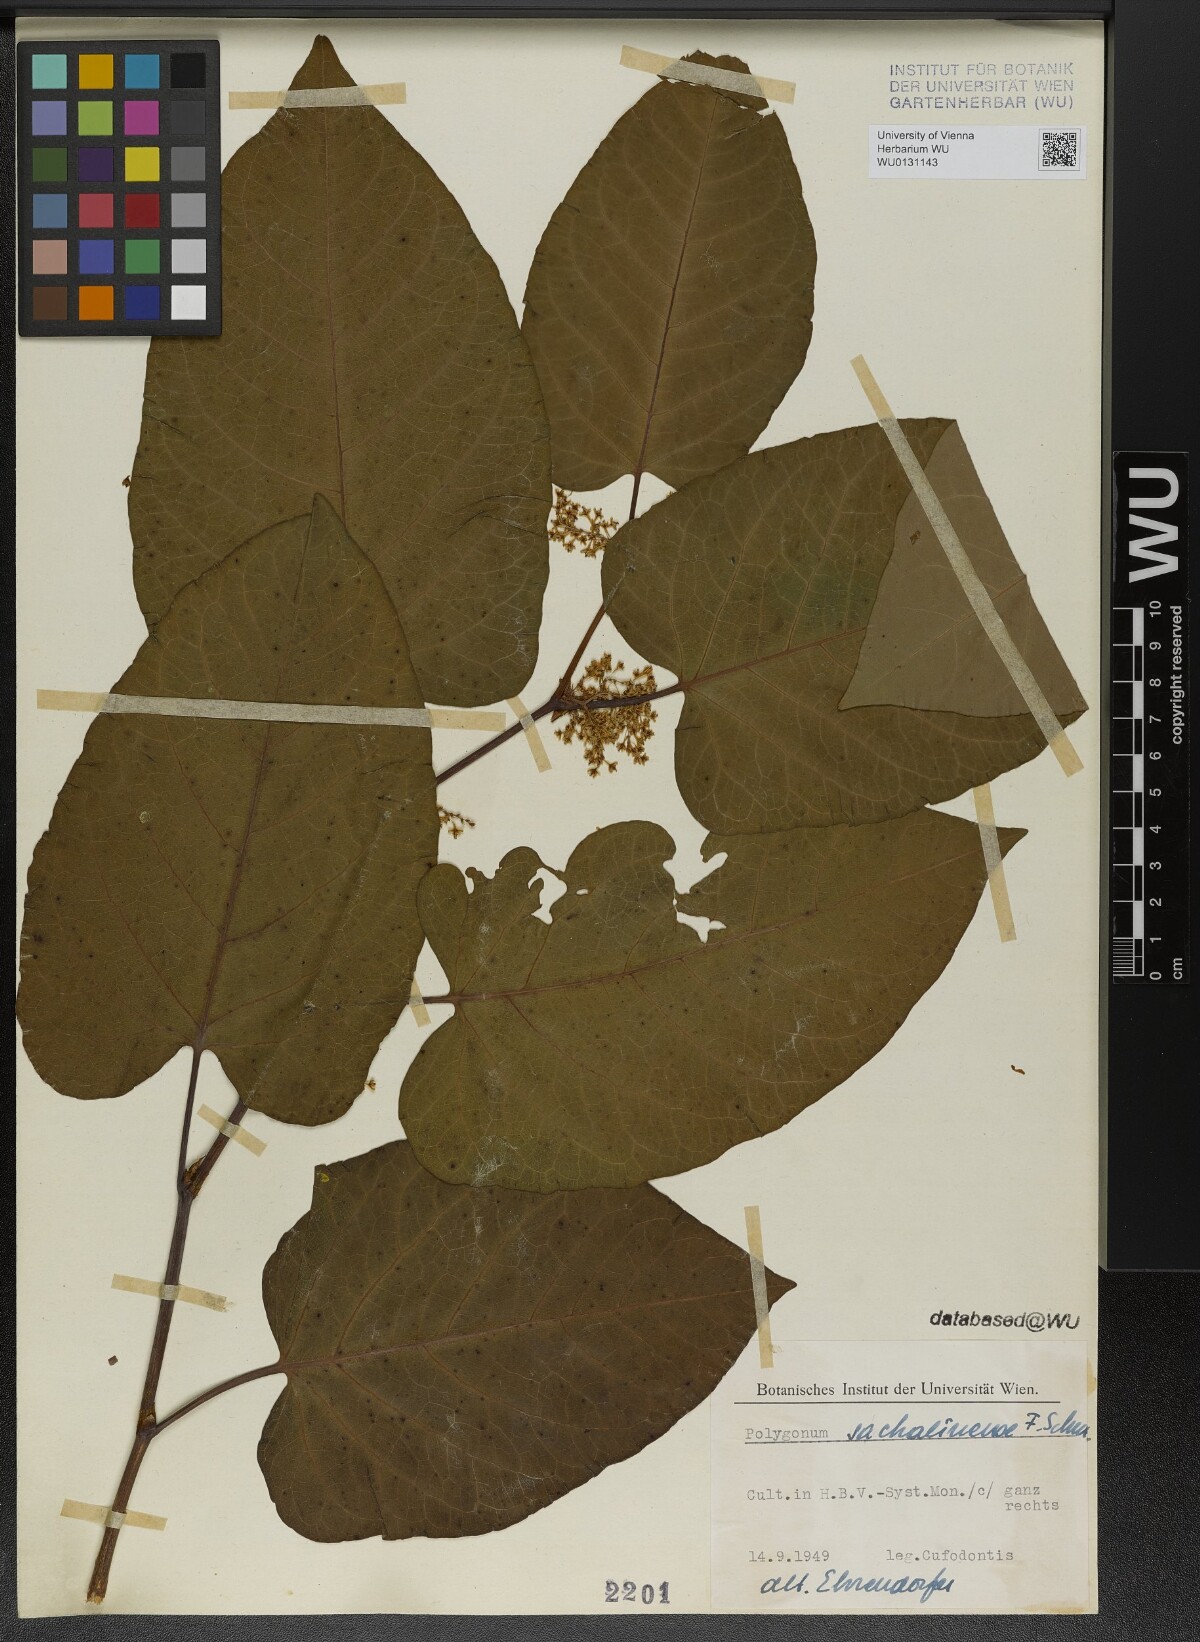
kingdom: Plantae
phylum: Tracheophyta
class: Magnoliopsida
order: Caryophyllales
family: Polygonaceae
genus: Reynoutria
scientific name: Reynoutria sachalinensis
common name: Giant knotweed
